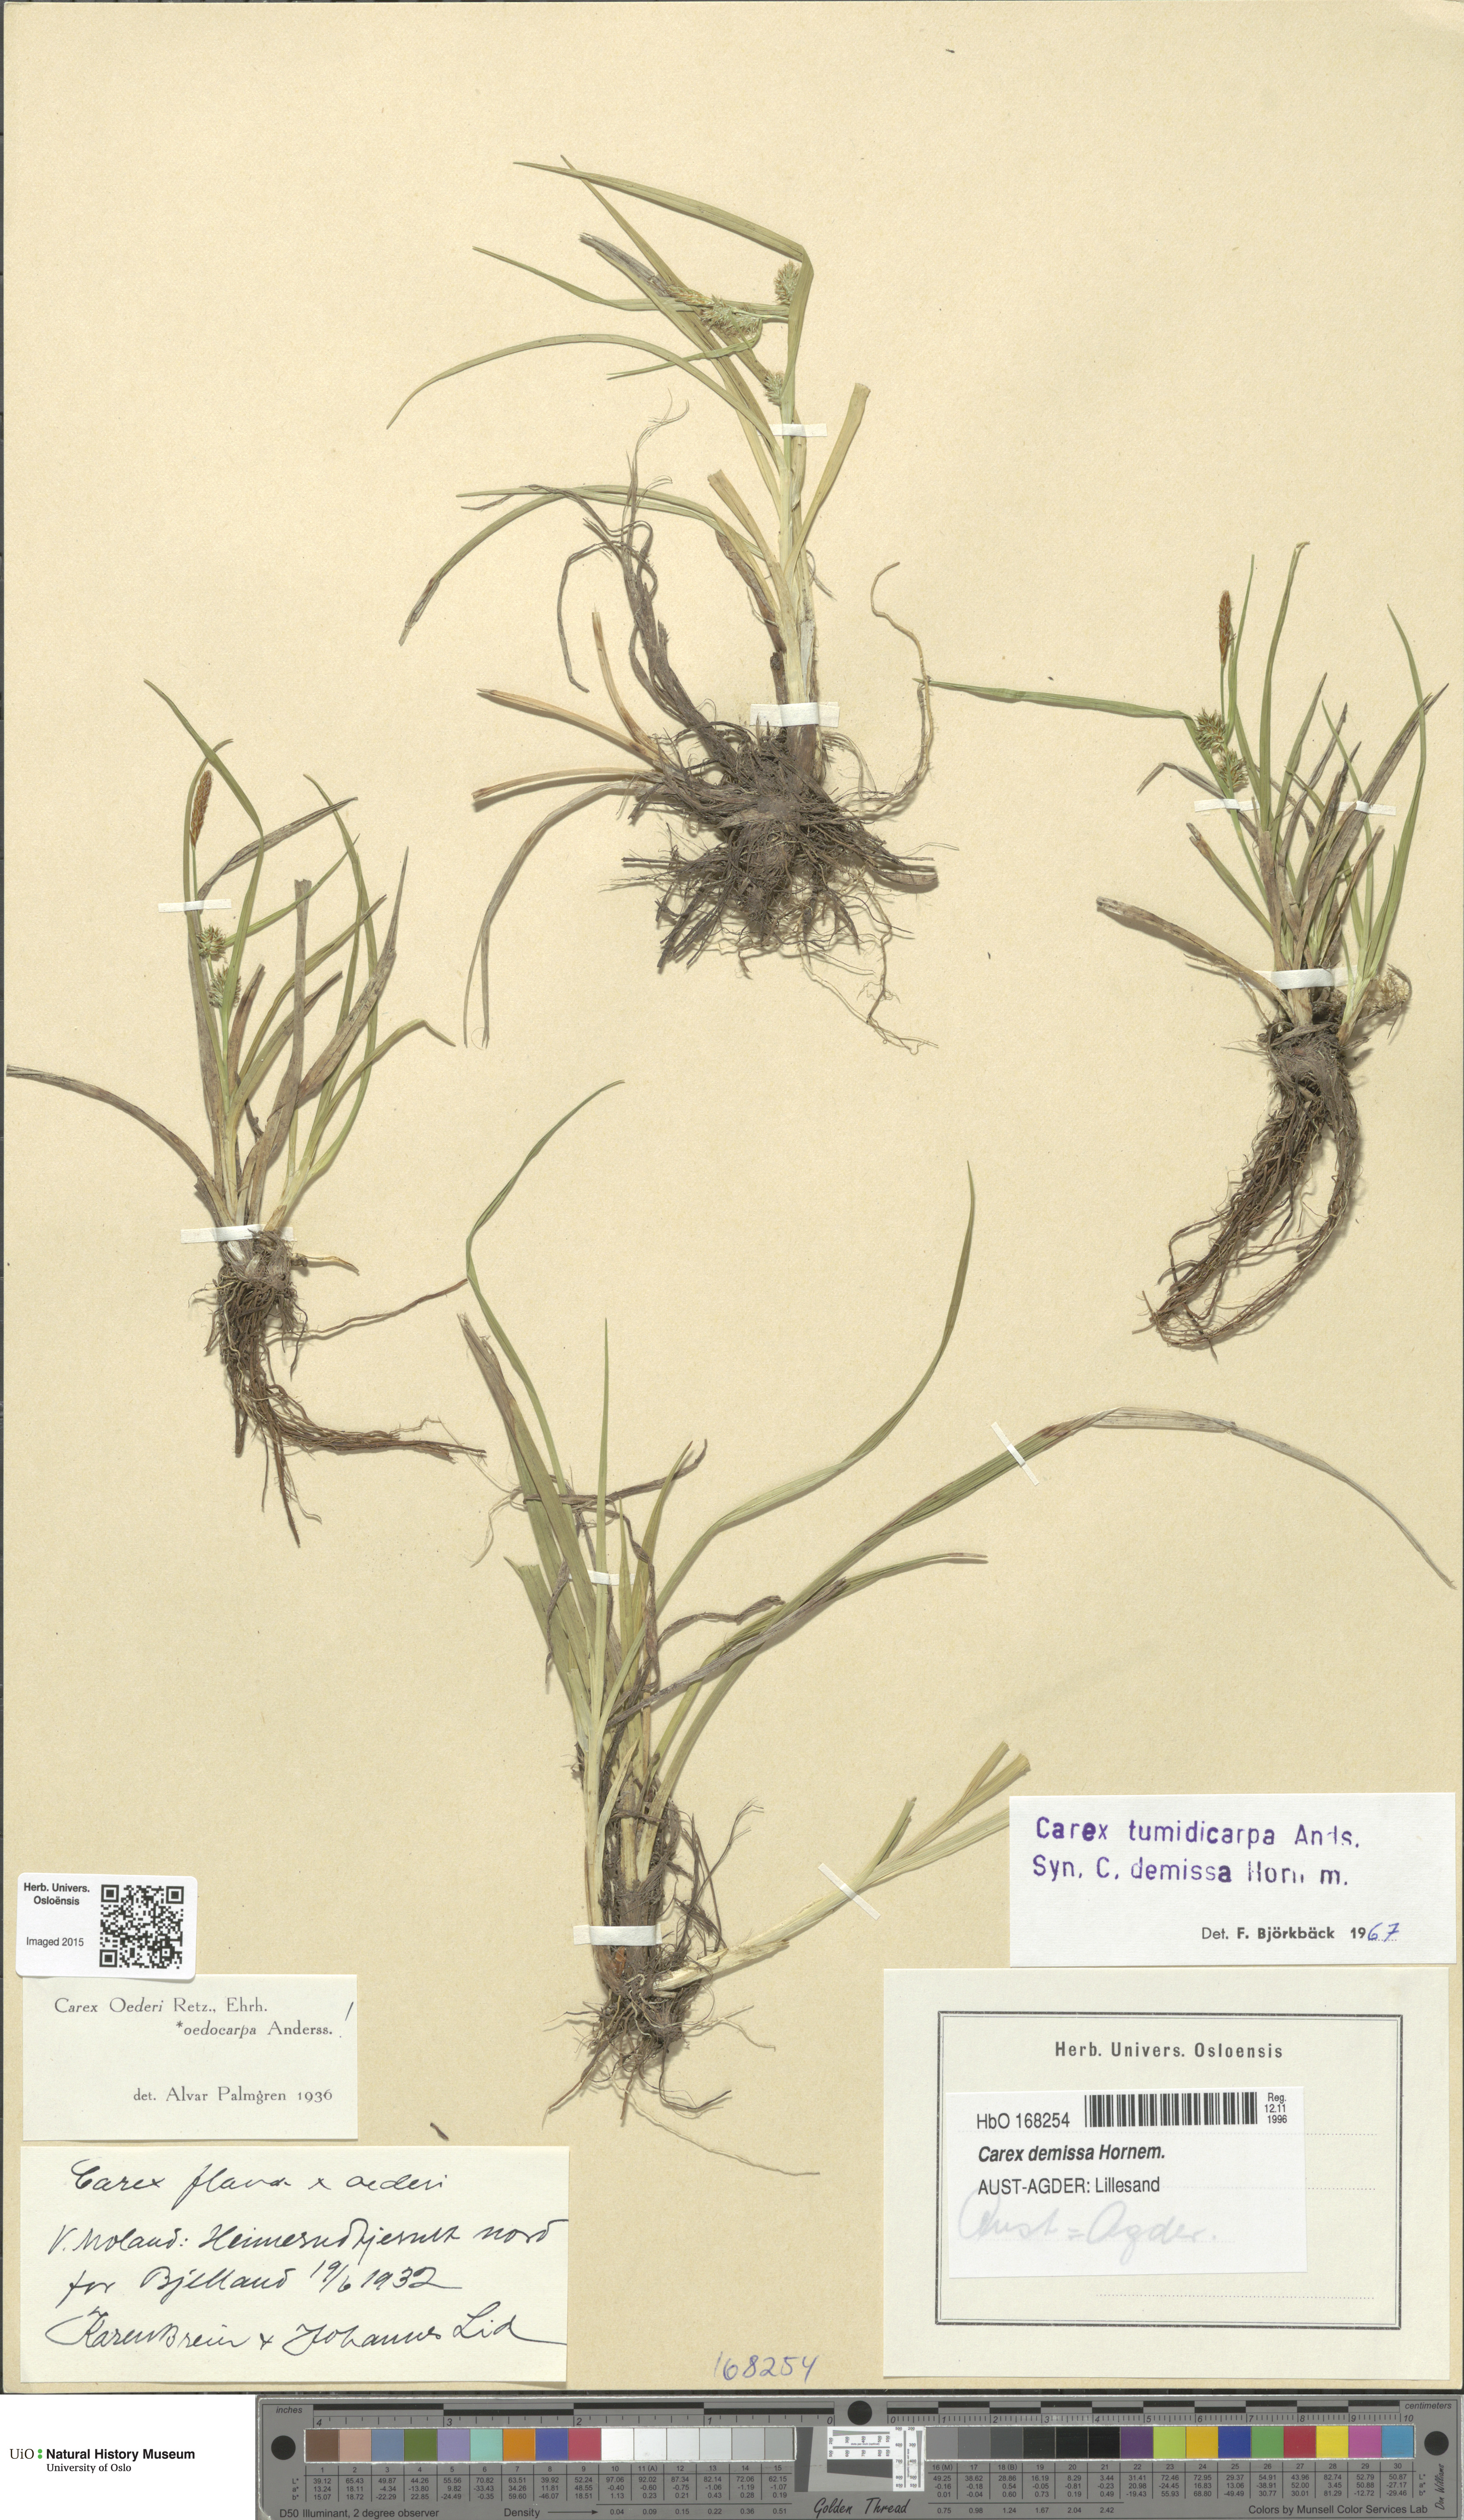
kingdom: Plantae
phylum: Tracheophyta
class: Liliopsida
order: Poales
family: Cyperaceae
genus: Carex
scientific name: Carex demissa
